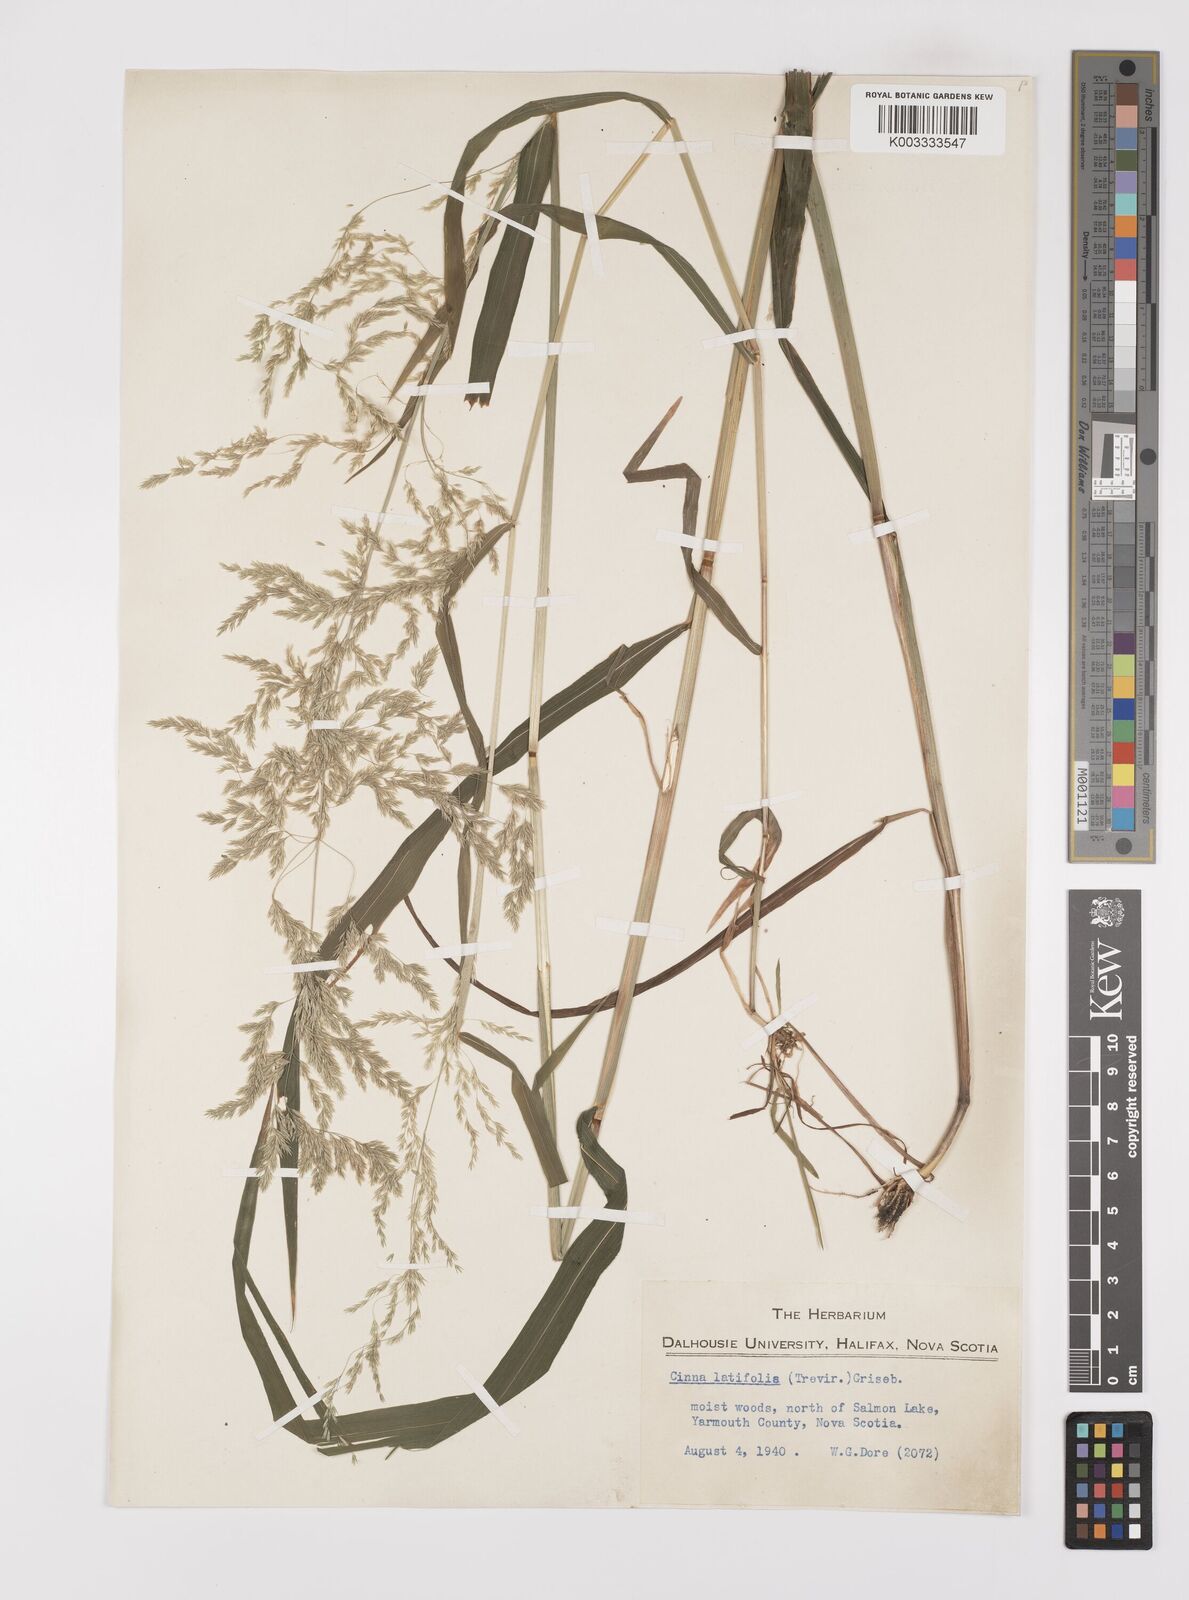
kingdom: Plantae
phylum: Tracheophyta
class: Liliopsida
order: Poales
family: Poaceae
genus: Cinna
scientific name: Cinna latifolia
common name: Drooping woodreed
